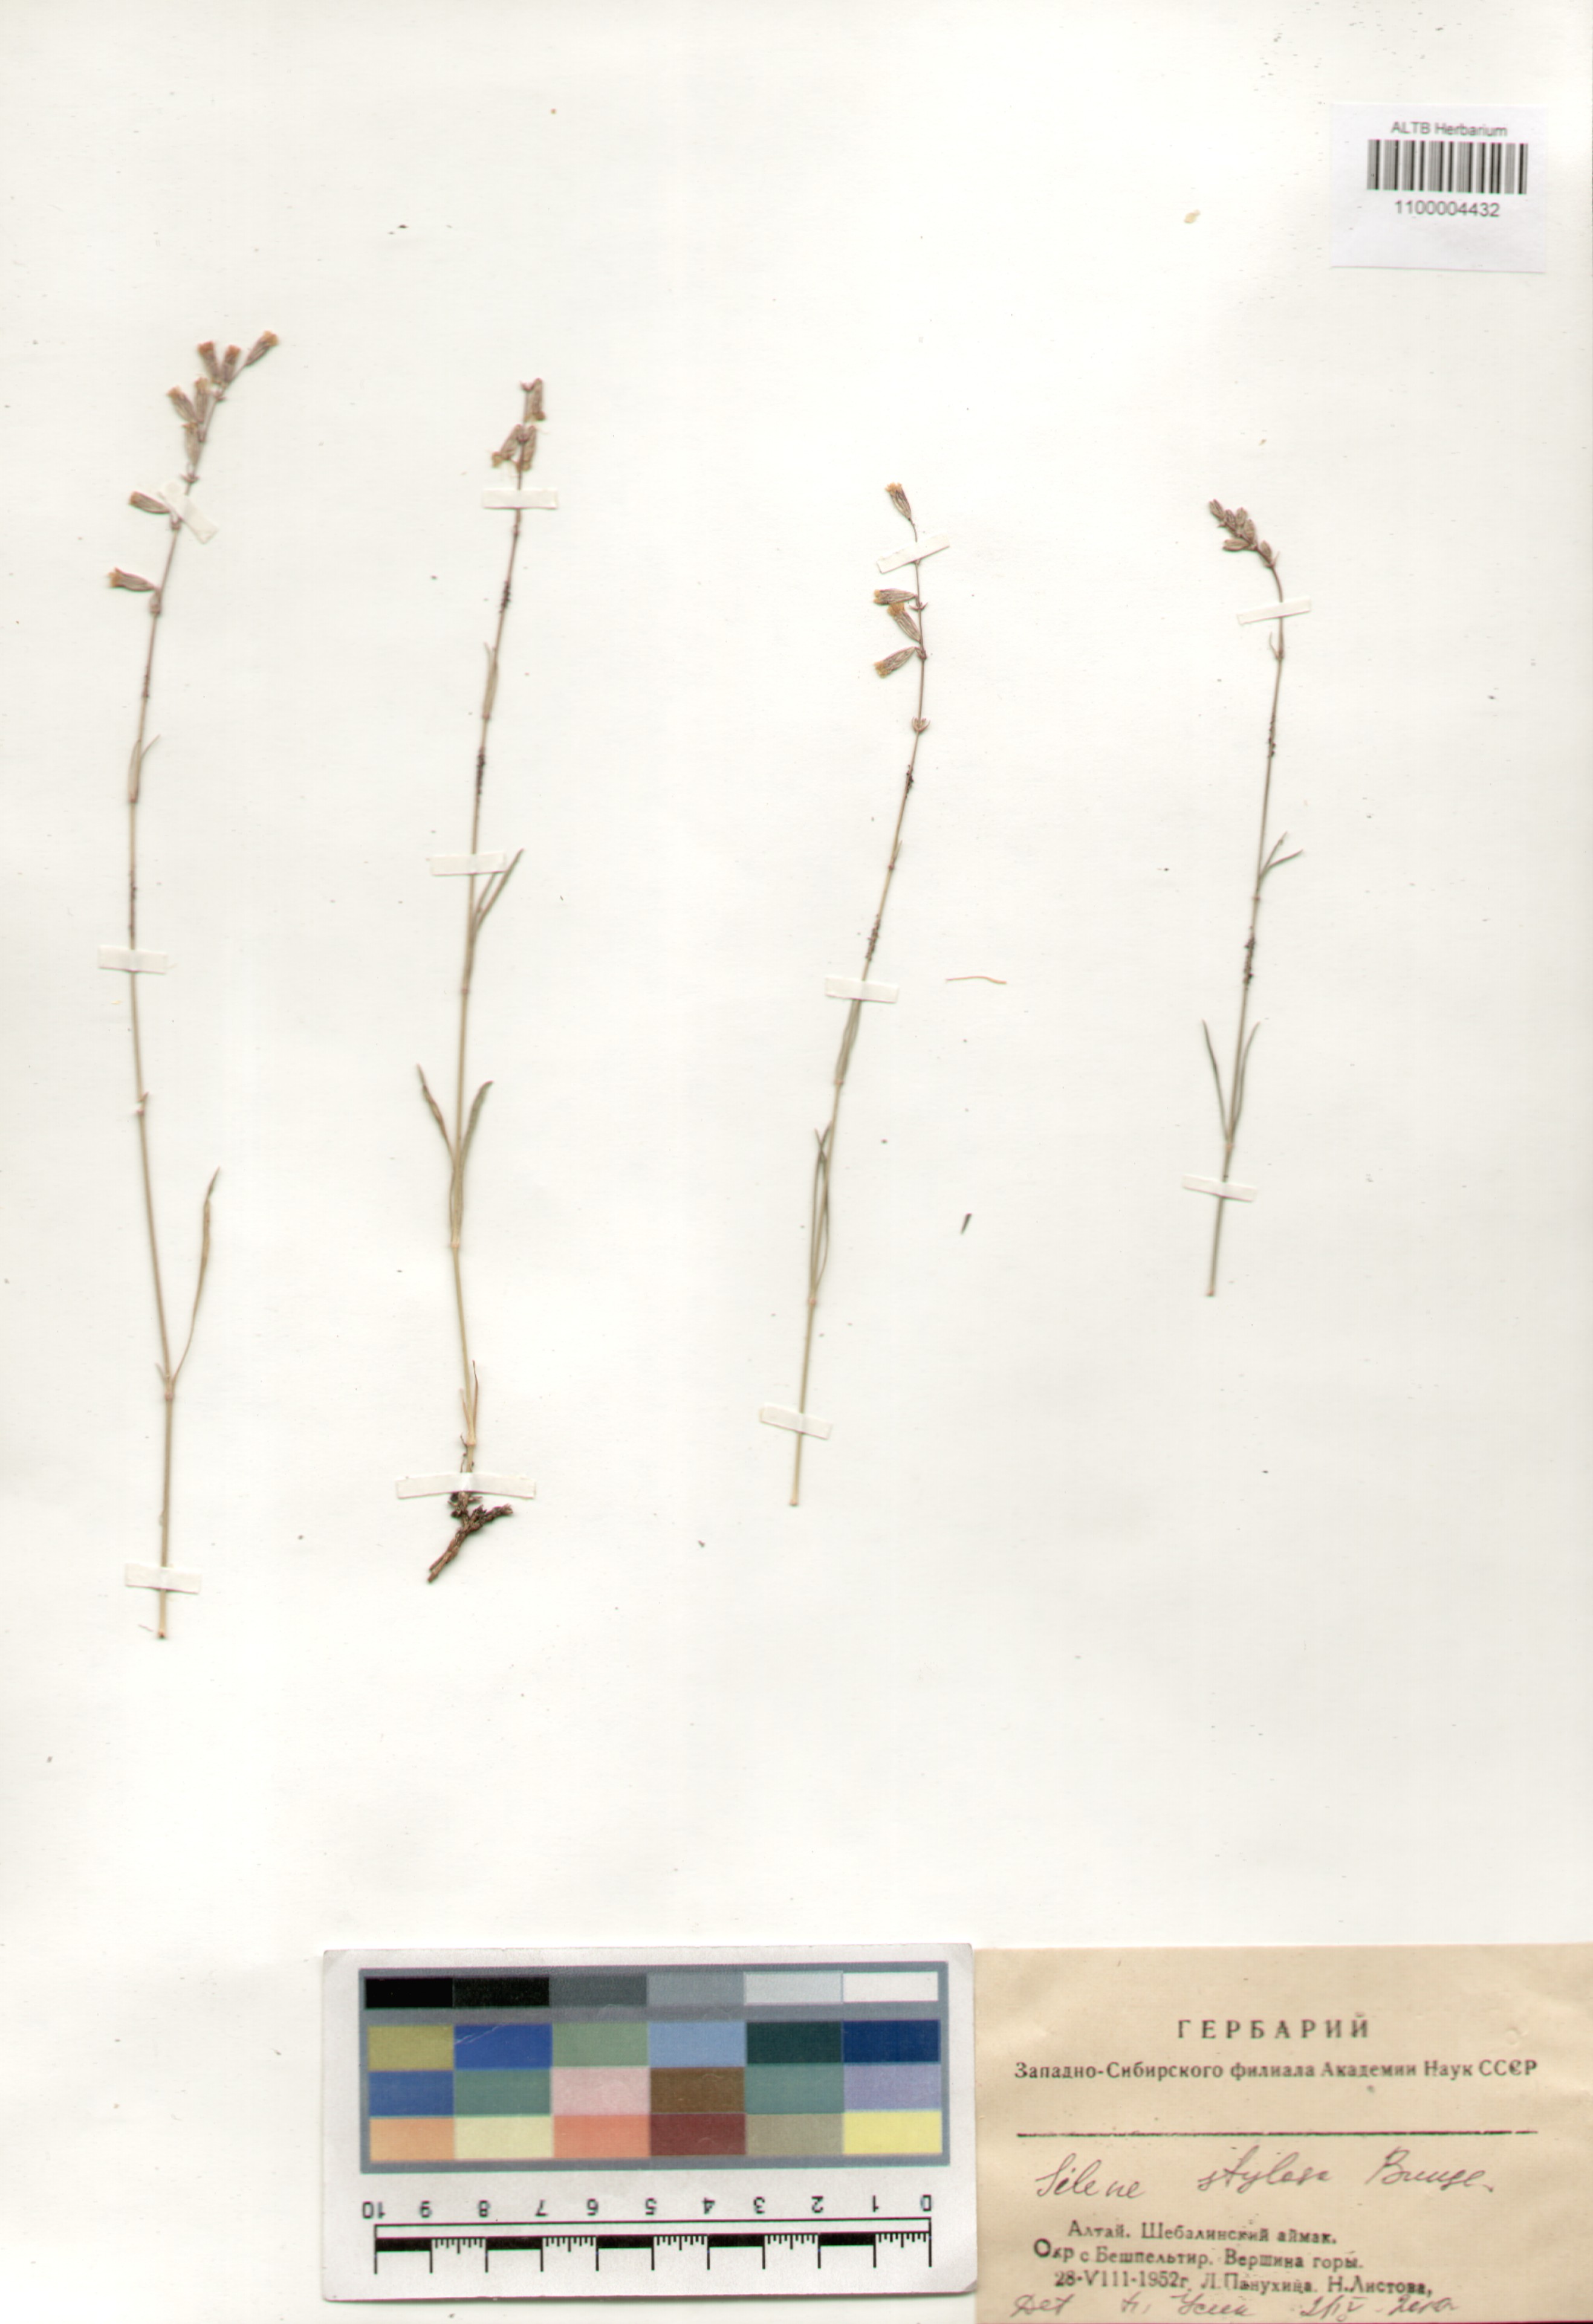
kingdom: Plantae
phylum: Tracheophyta
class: Magnoliopsida
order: Caryophyllales
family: Caryophyllaceae
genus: Silene
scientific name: Silene graminifolia
